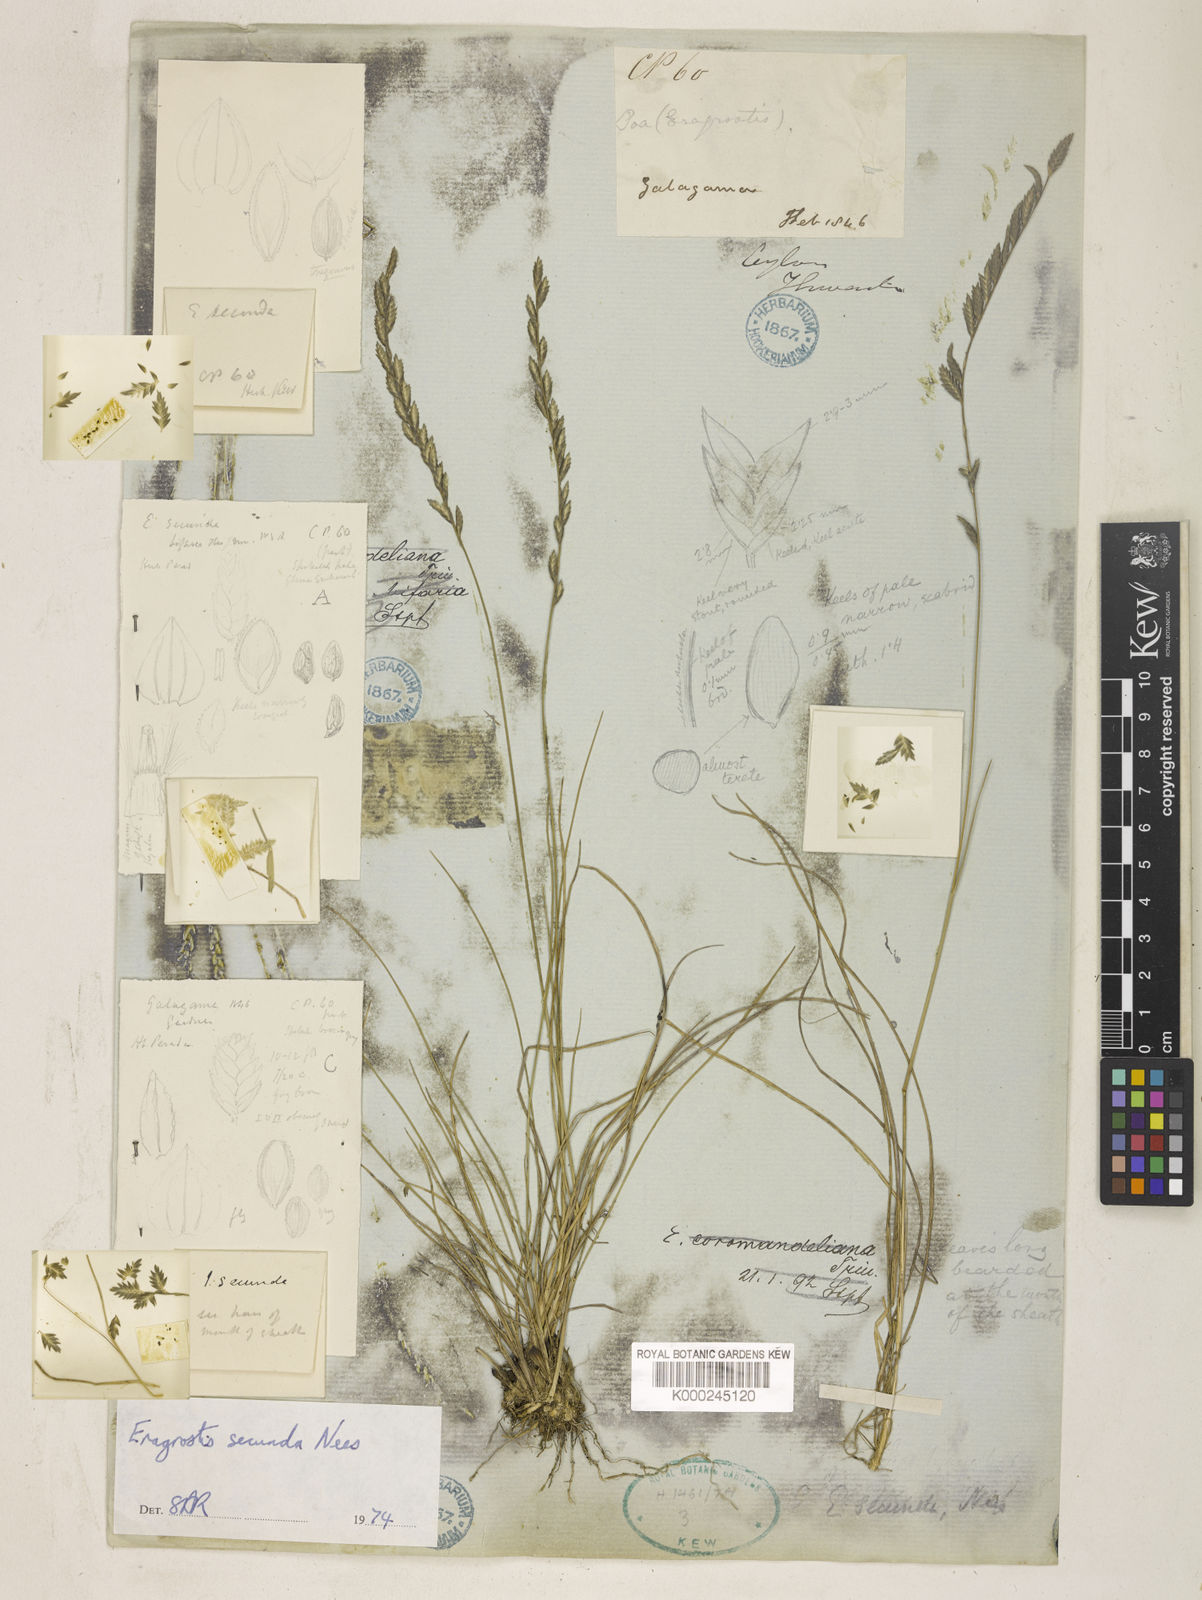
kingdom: Plantae
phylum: Tracheophyta
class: Liliopsida
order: Poales
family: Poaceae
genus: Eragrostiella
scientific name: Eragrostiella bifaria
